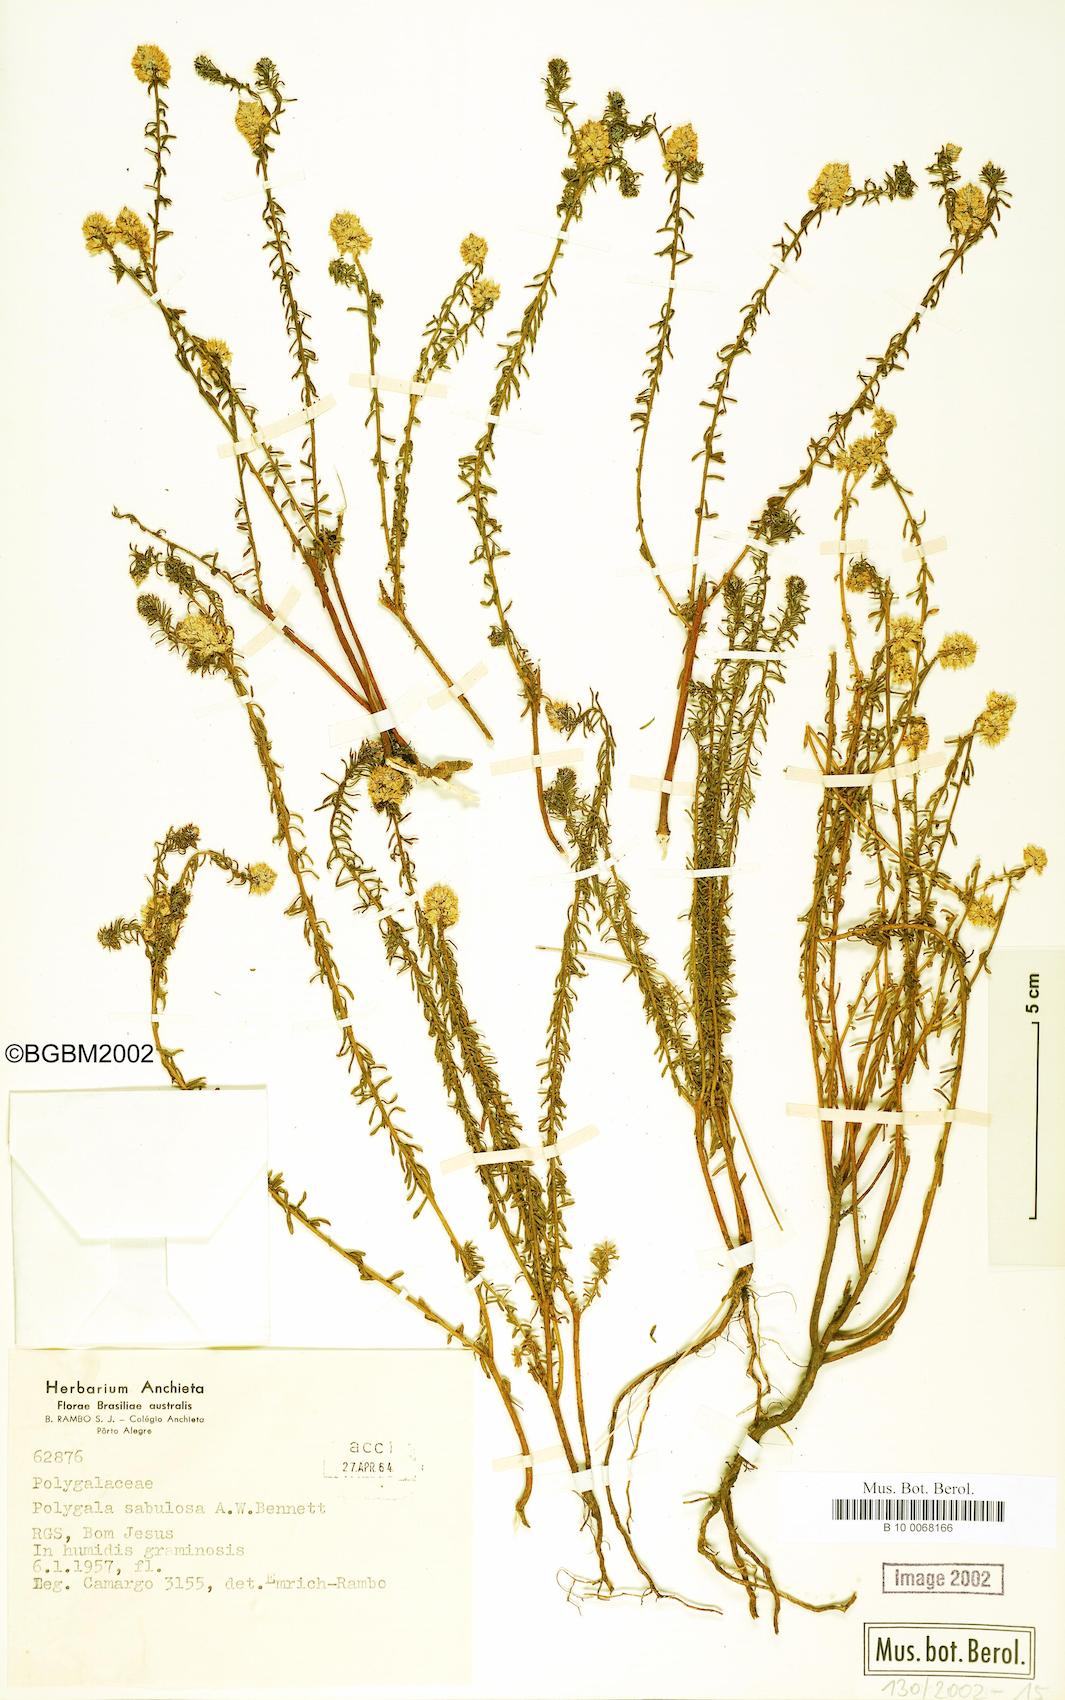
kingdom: Plantae
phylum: Tracheophyta
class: Magnoliopsida
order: Fabales
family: Polygalaceae
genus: Polygala
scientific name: Polygala sellowiana
